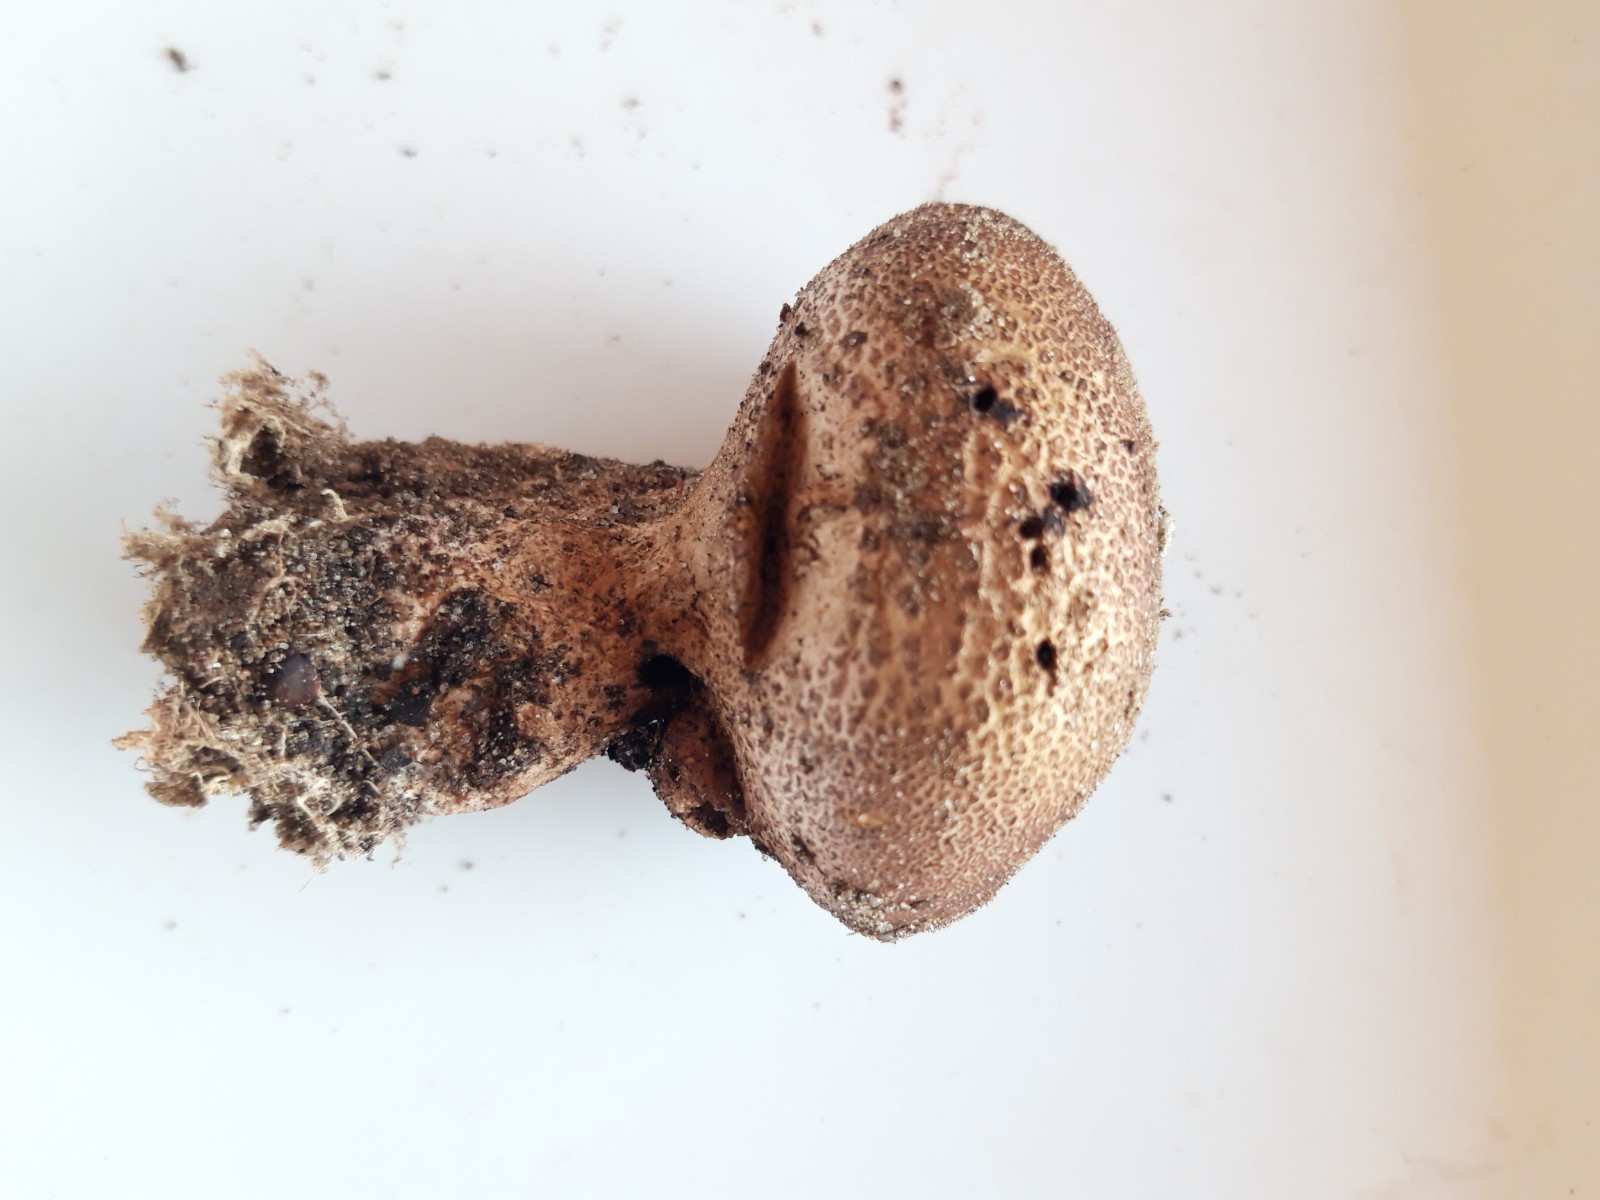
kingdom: Fungi
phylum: Basidiomycota
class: Agaricomycetes
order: Boletales
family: Sclerodermataceae
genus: Scleroderma
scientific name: Scleroderma verrucosum
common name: stilket bruskbold
